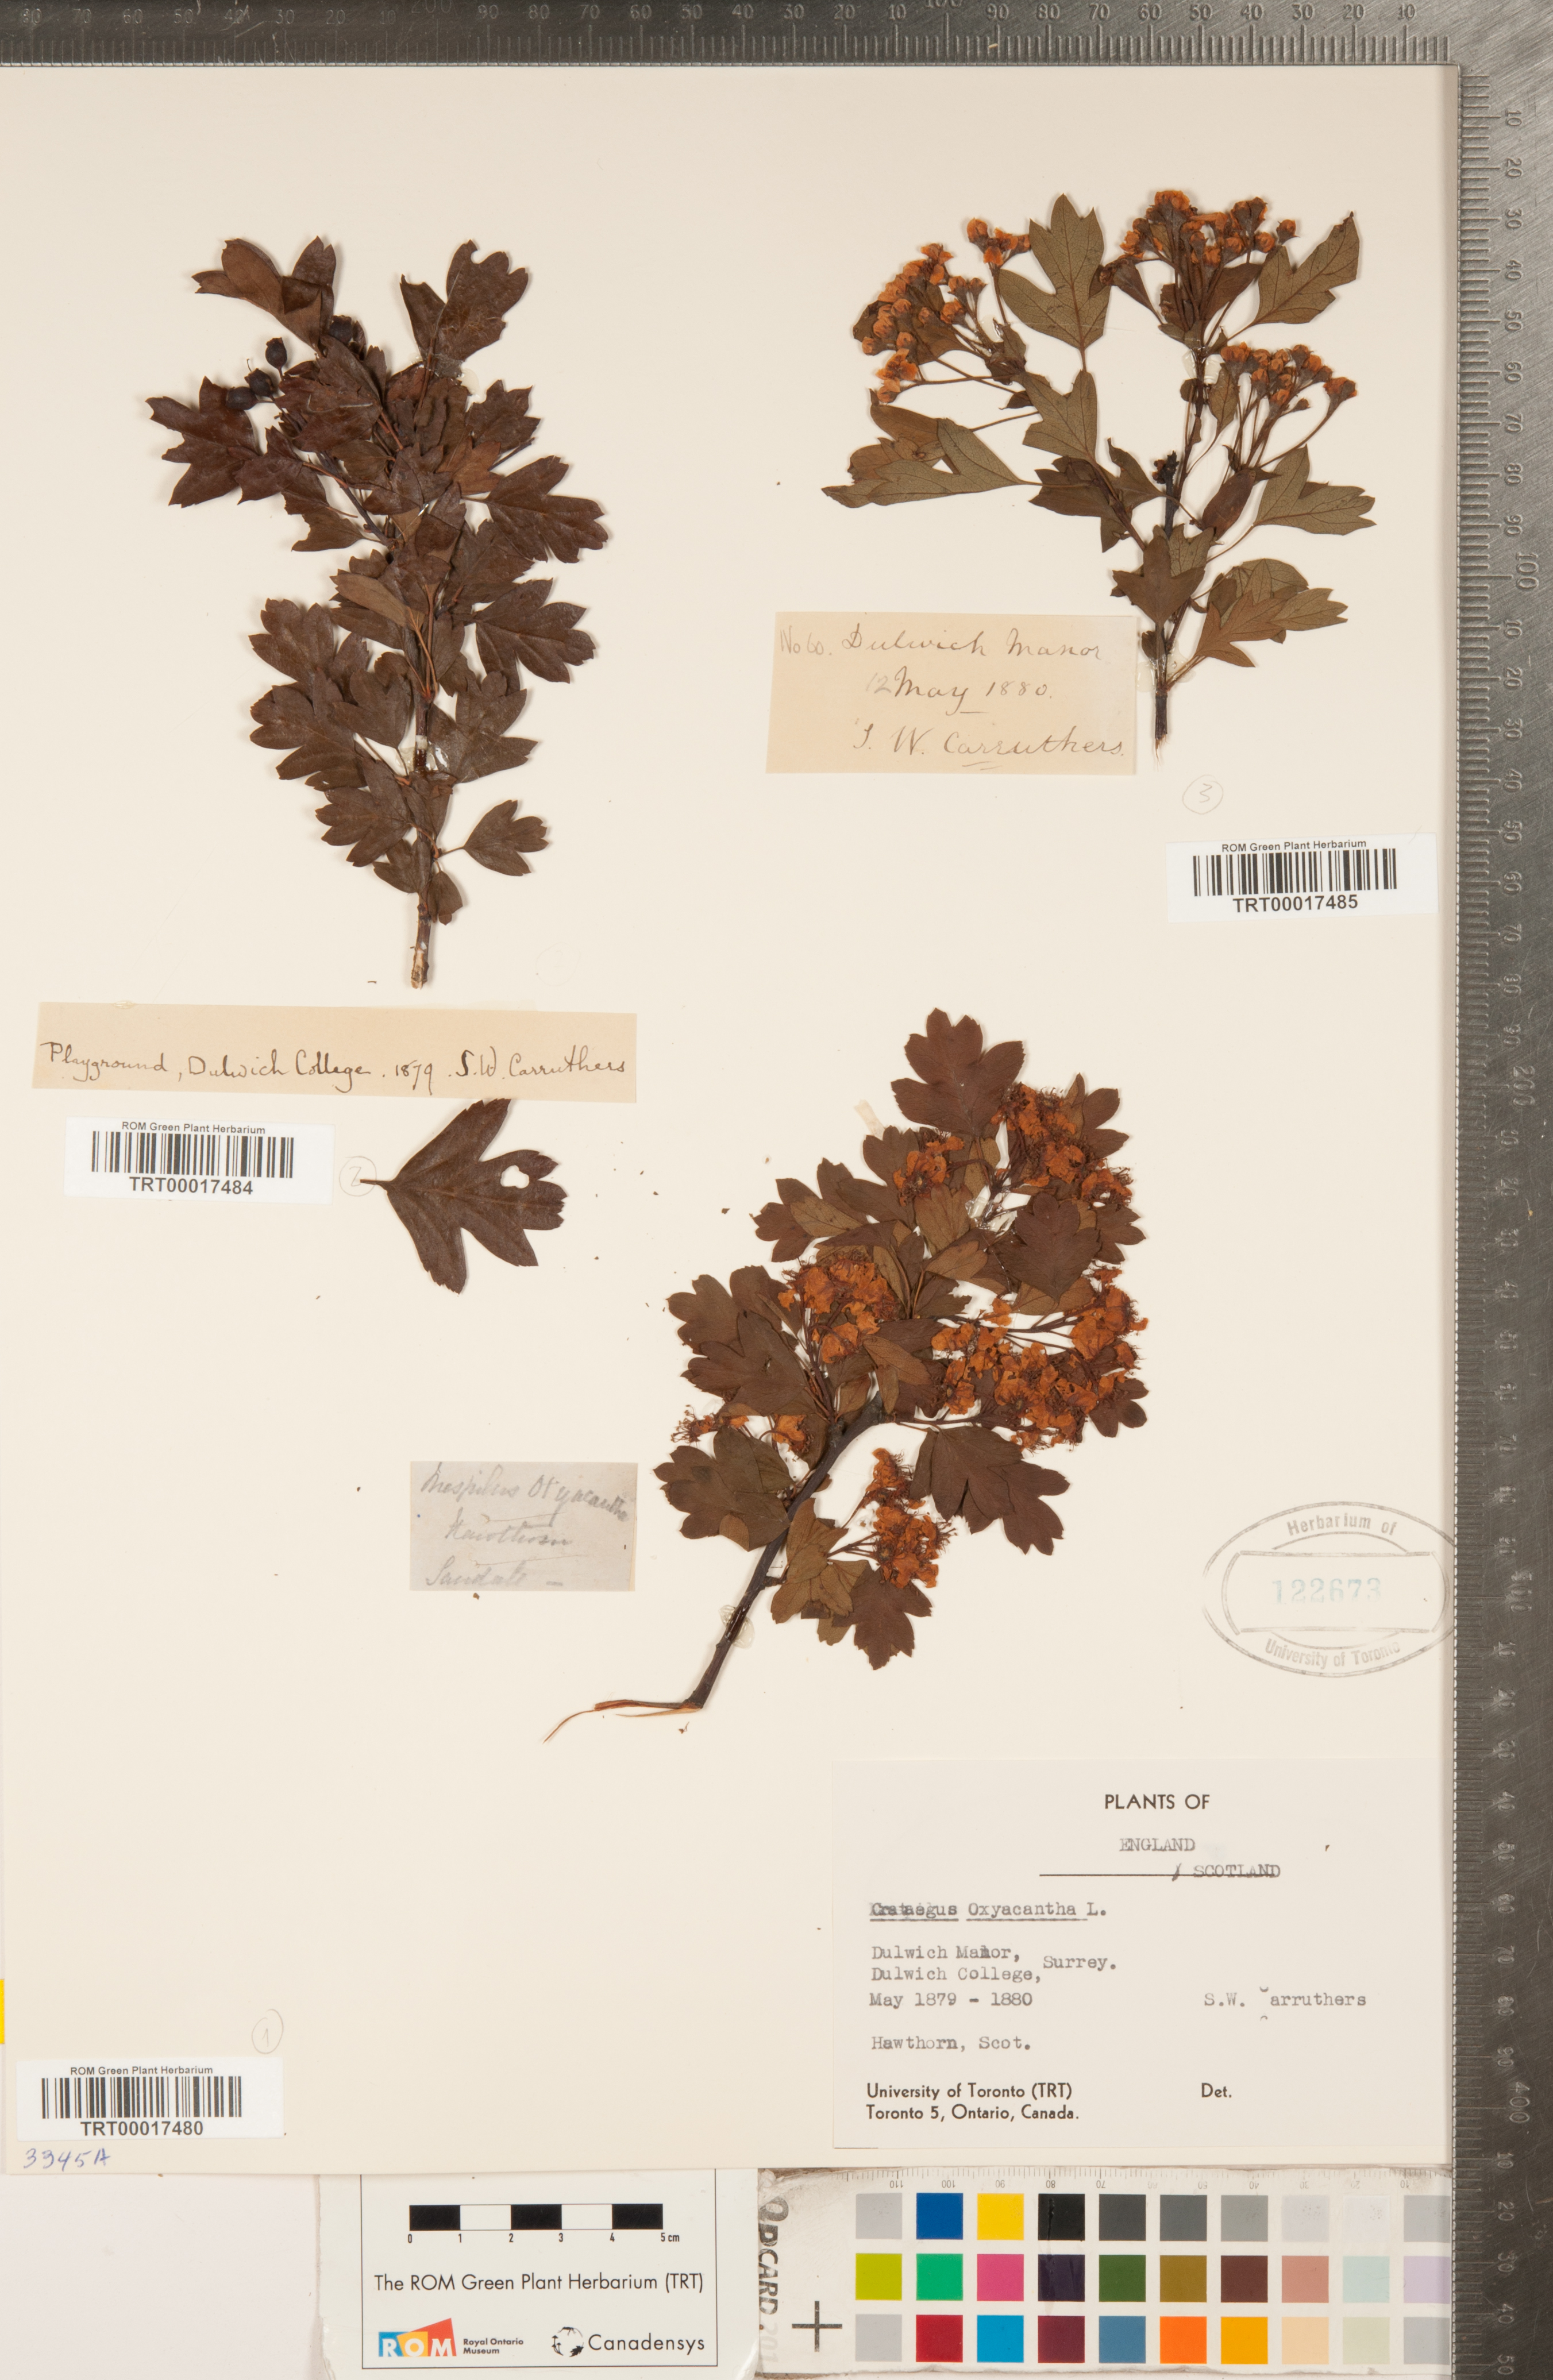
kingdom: Plantae
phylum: Tracheophyta
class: Magnoliopsida
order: Rosales
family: Rosaceae
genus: Crataegus
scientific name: Crataegus
